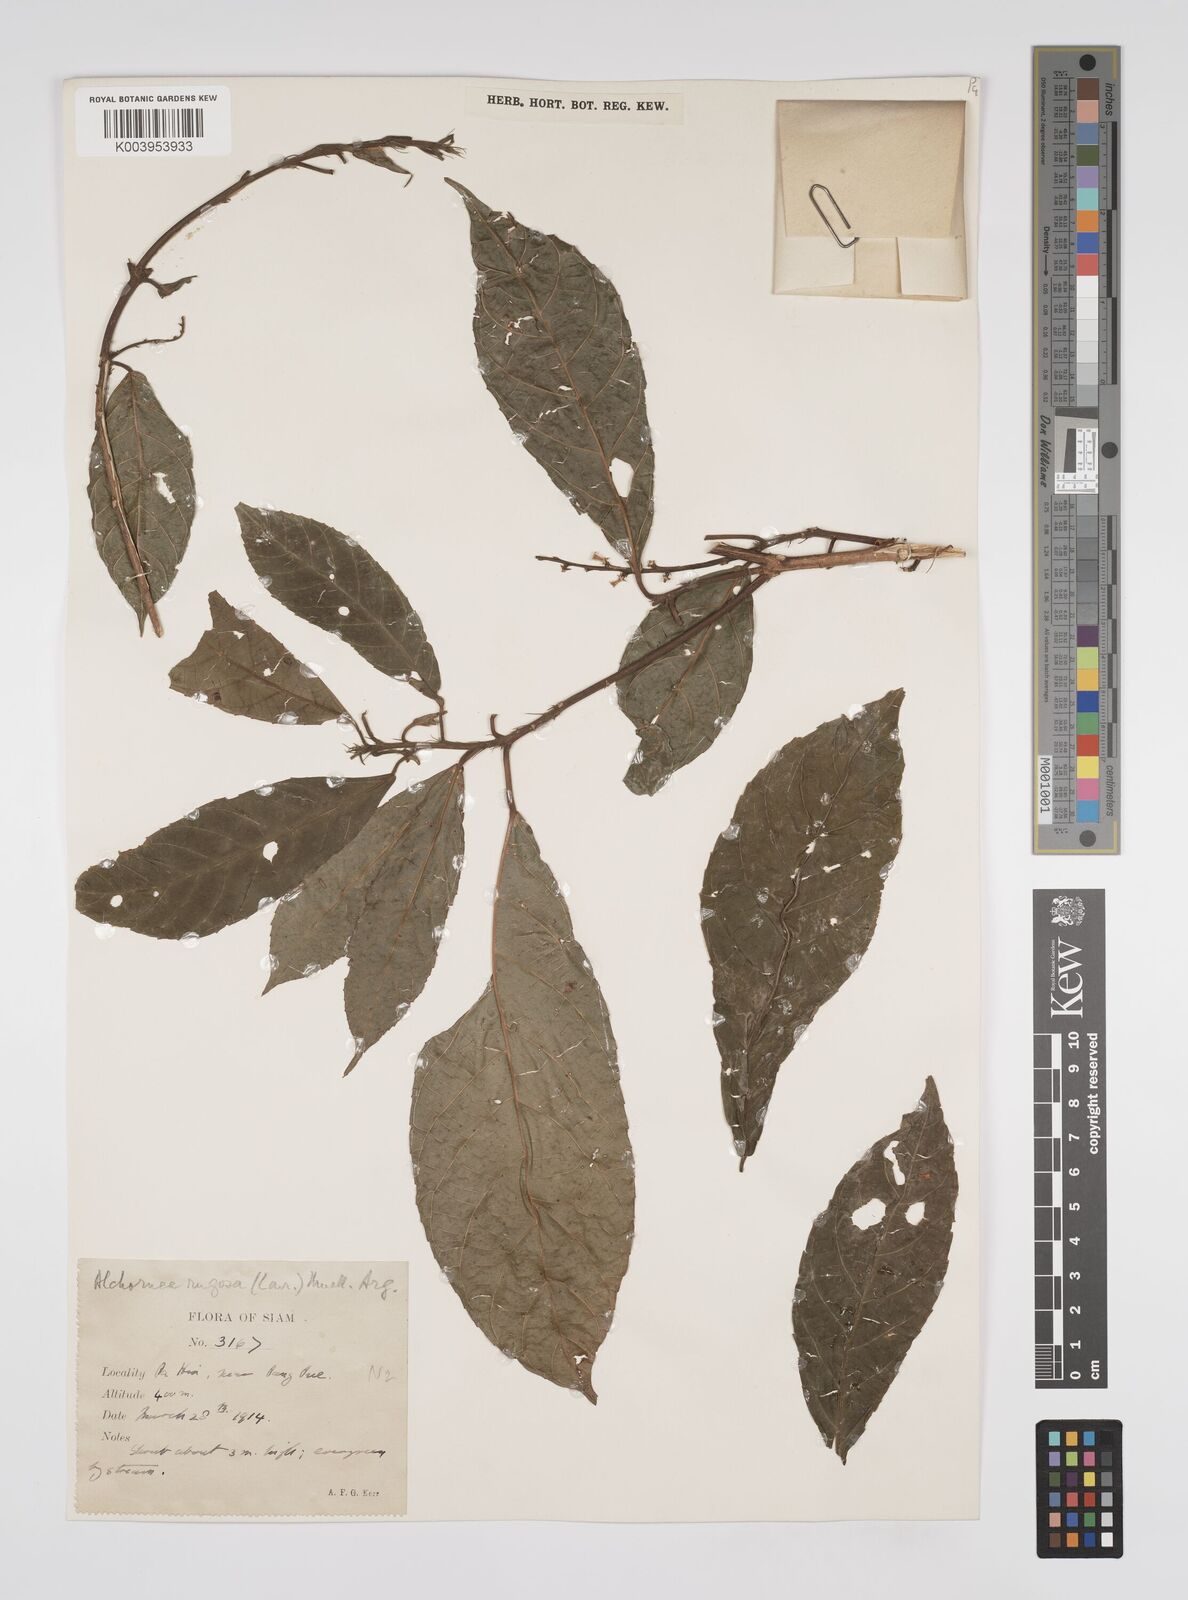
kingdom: Plantae
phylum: Tracheophyta
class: Magnoliopsida
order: Malpighiales
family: Euphorbiaceae
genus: Alchornea
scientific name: Alchornea rugosa
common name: Alchorntree
